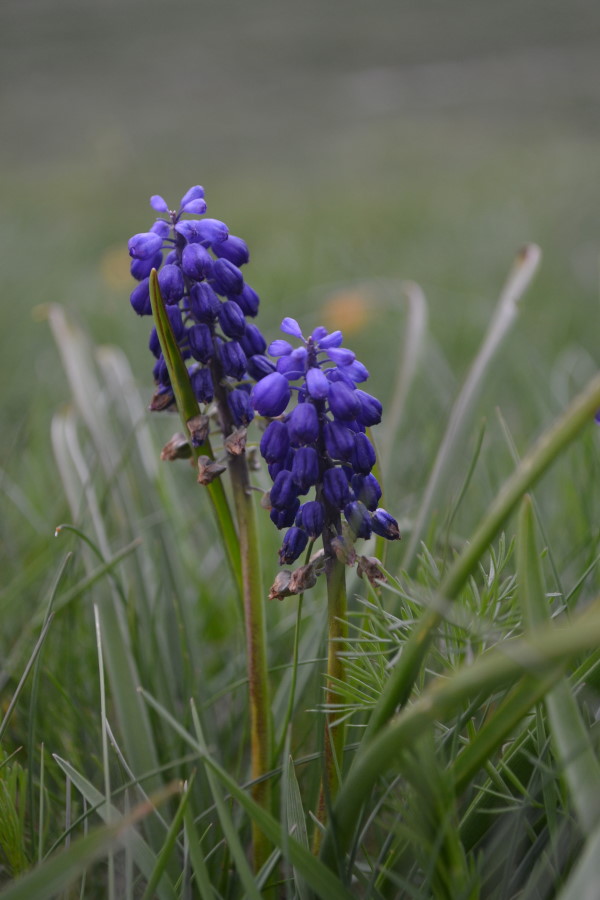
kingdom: Plantae
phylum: Tracheophyta
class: Liliopsida
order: Asparagales
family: Asparagaceae
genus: Muscari
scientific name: Muscari
